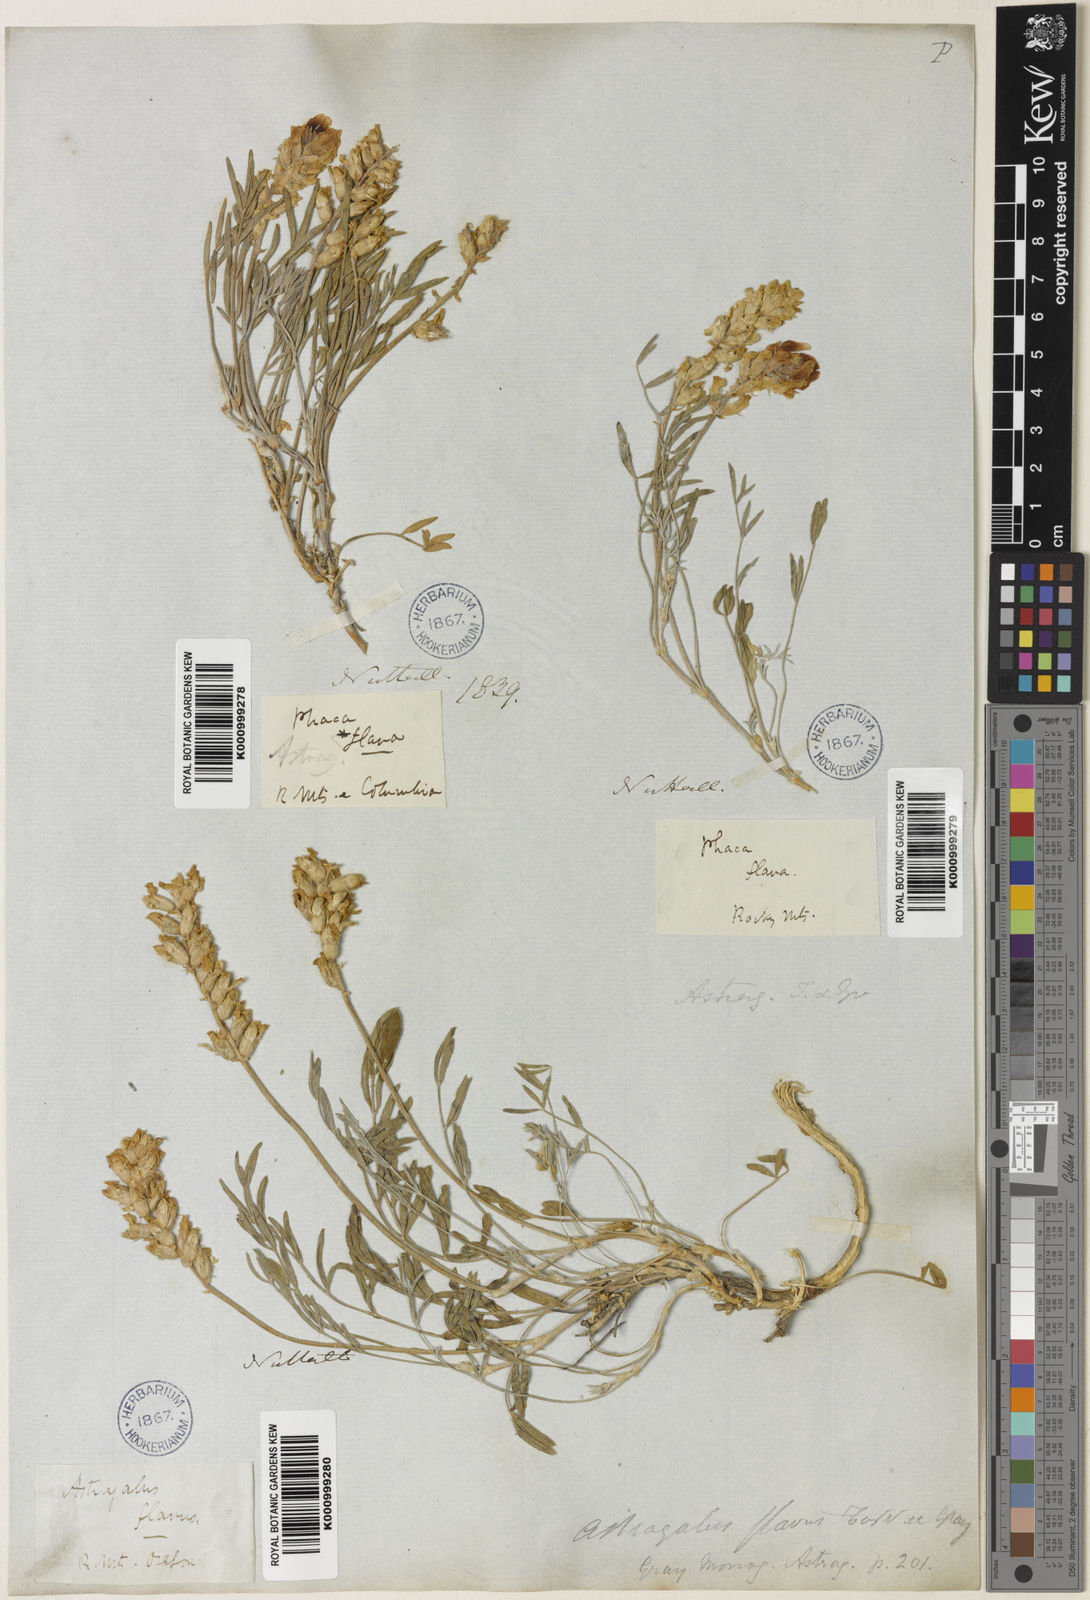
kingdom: Plantae
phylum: Tracheophyta
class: Magnoliopsida
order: Fabales
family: Fabaceae
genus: Astragalus
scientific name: Astragalus flavus
